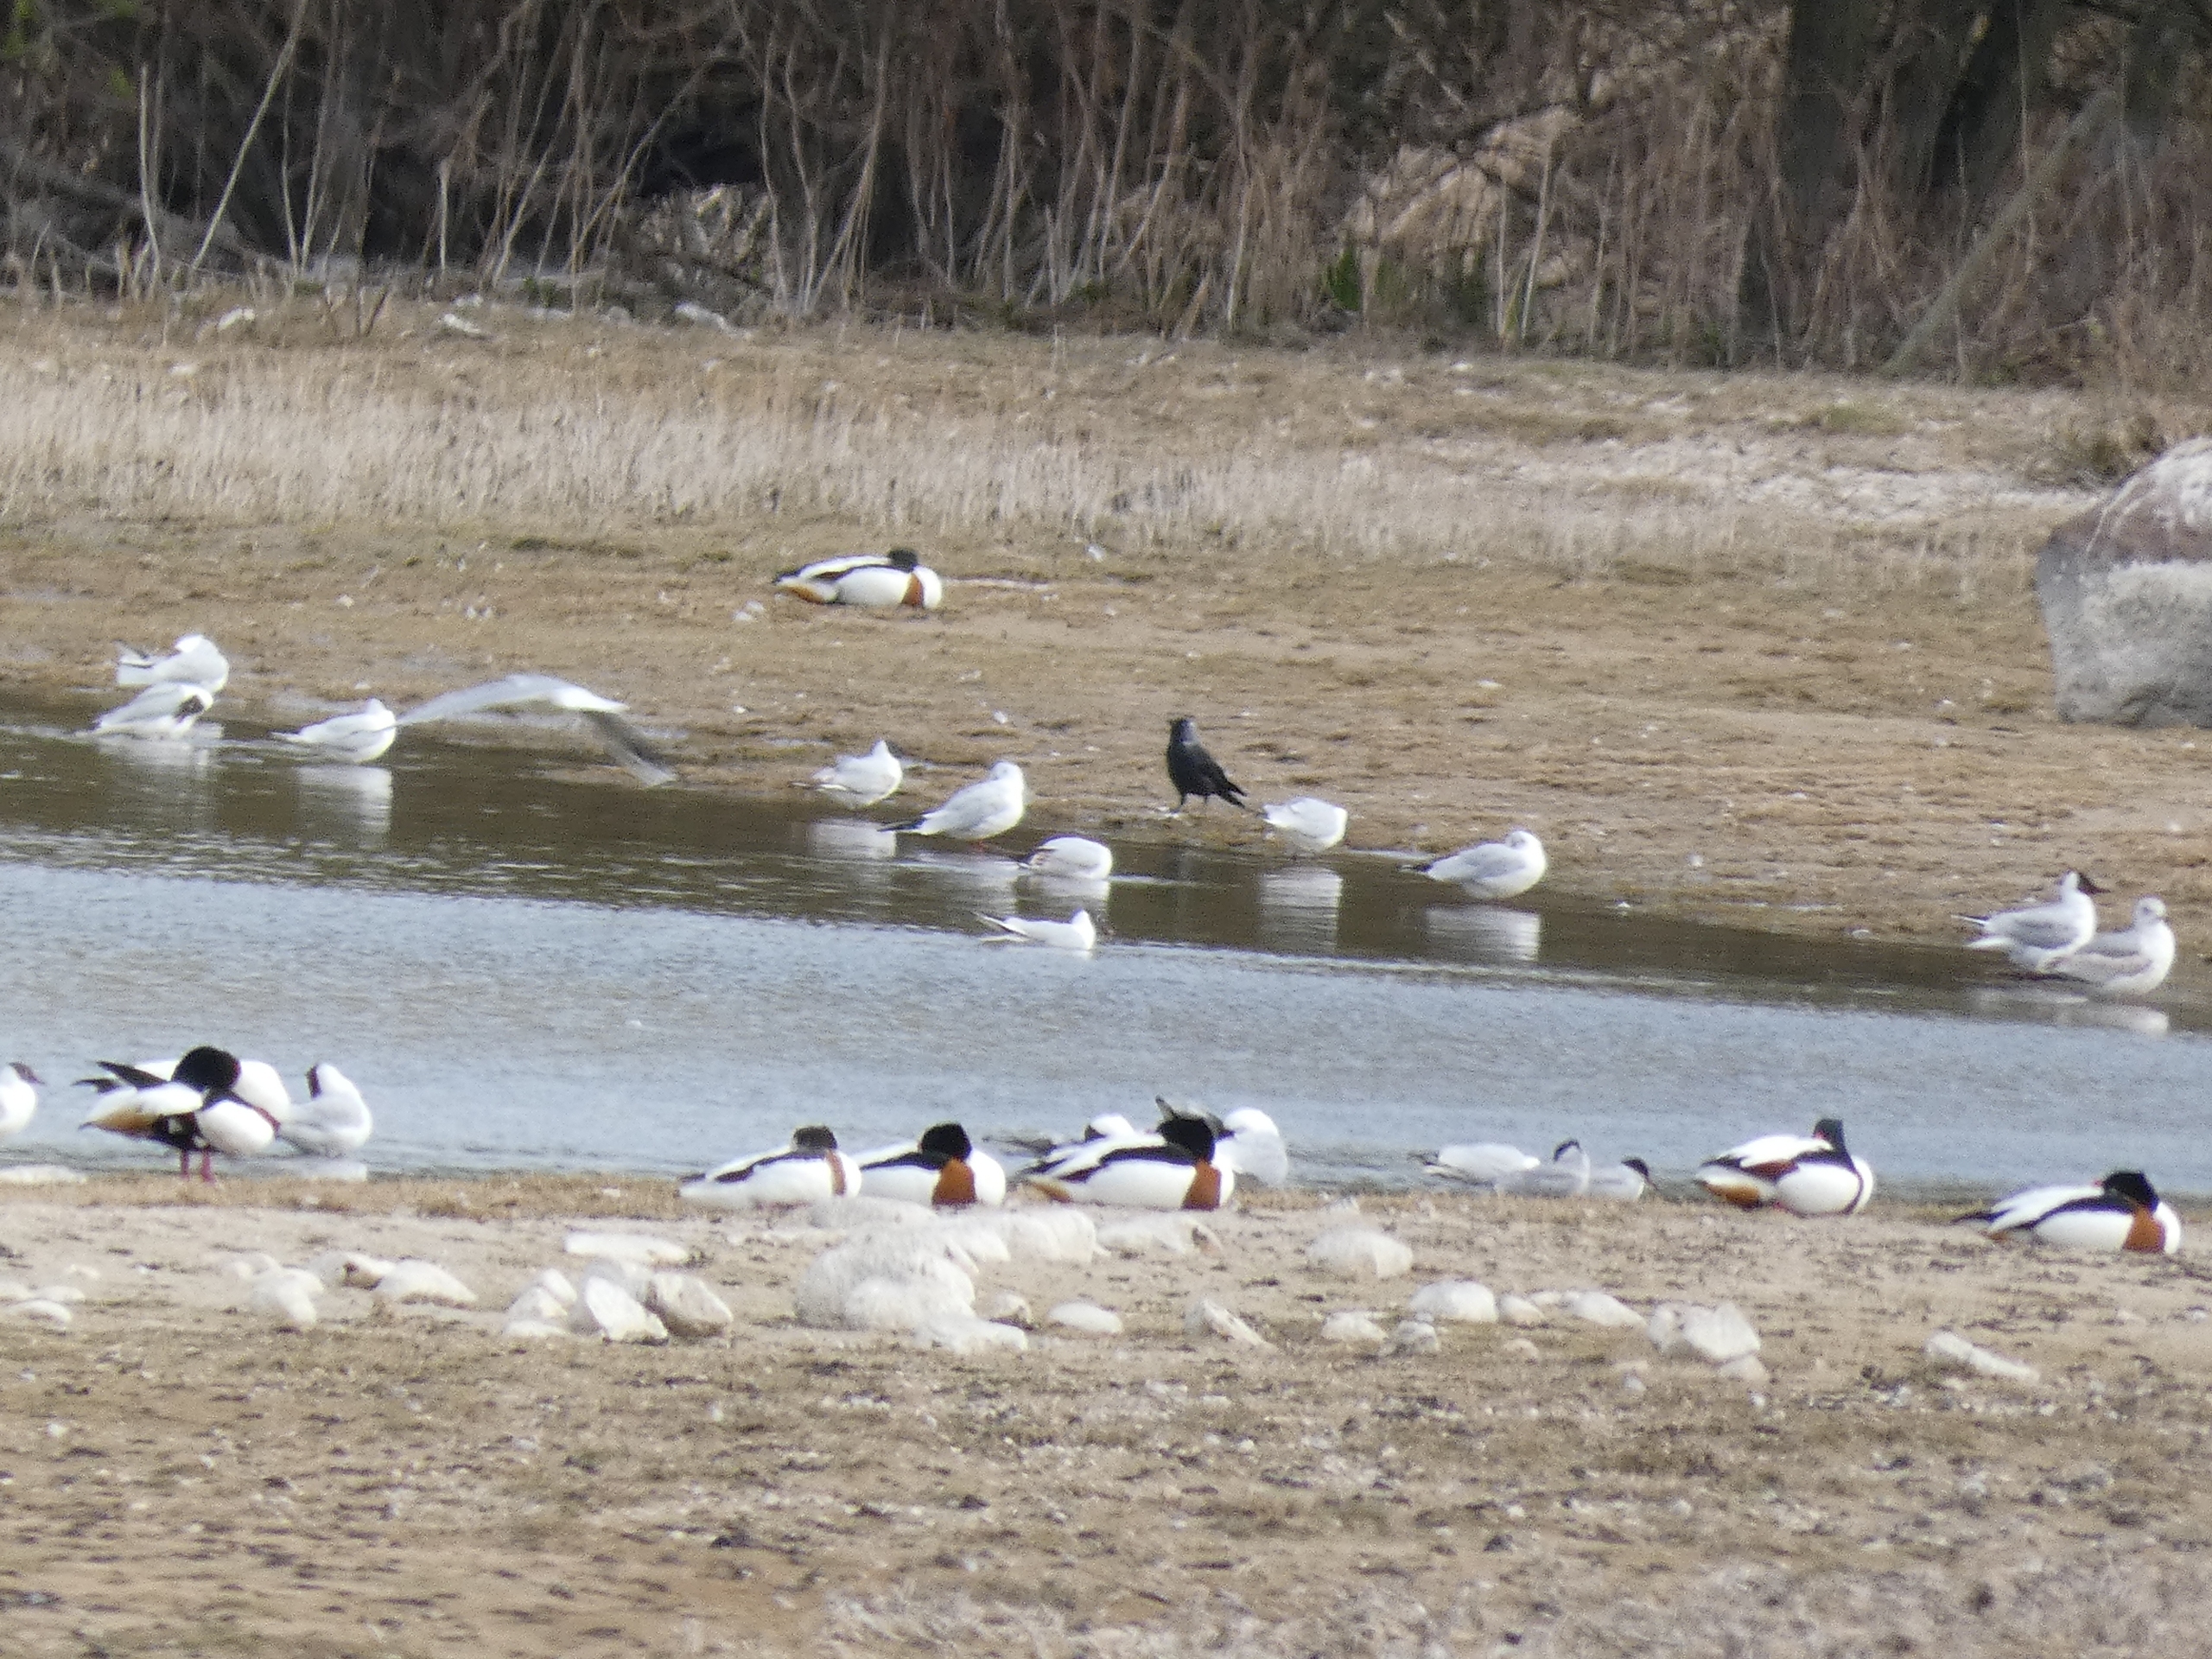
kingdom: Animalia
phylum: Chordata
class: Aves
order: Passeriformes
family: Corvidae
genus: Coloeus
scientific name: Coloeus monedula
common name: Allike
